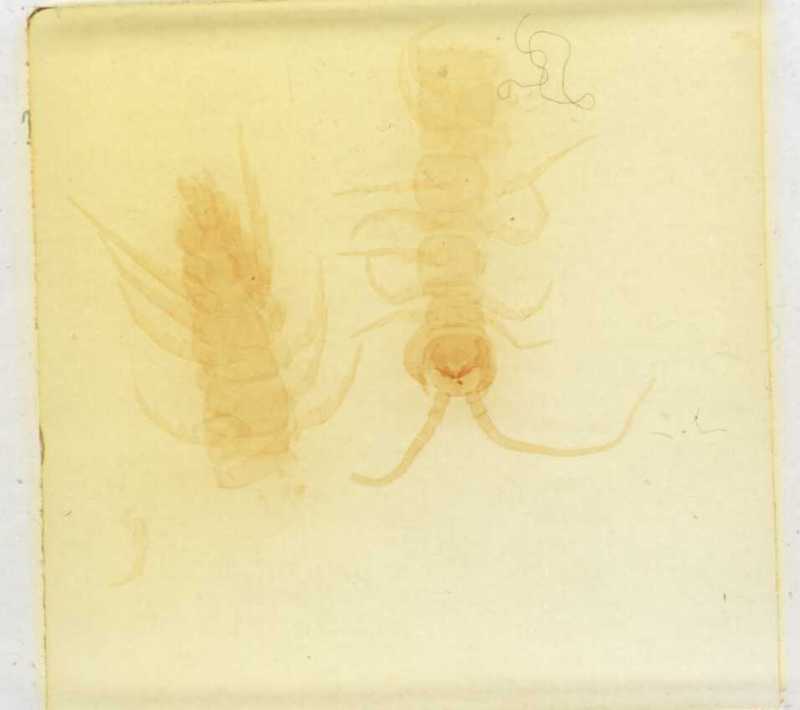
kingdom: Animalia
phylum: Arthropoda
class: Chilopoda
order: Lithobiomorpha
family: Lithobiidae
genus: Lithobius
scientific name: Lithobius silvivagus
